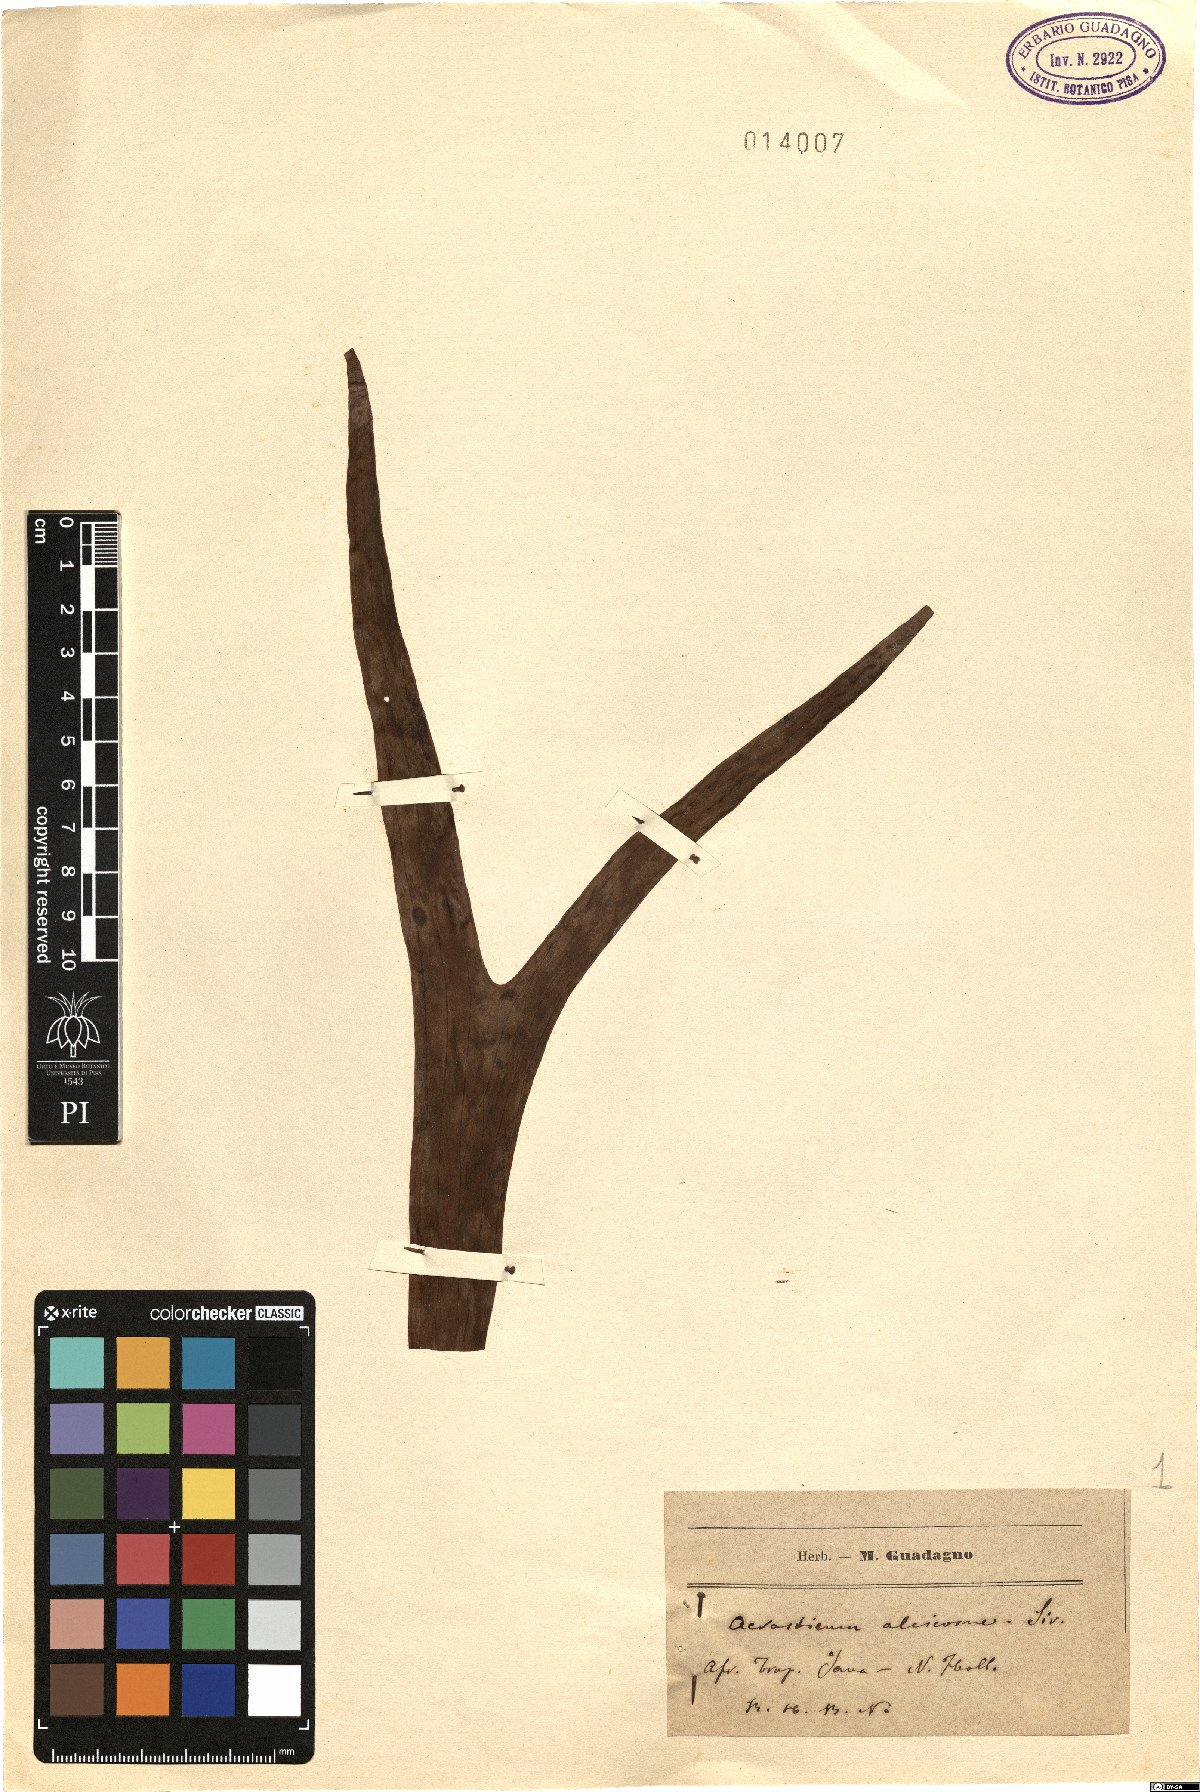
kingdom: Plantae
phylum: Tracheophyta
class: Polypodiopsida
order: Polypodiales
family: Polypodiaceae
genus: Platycerium
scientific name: Platycerium alcicorne
